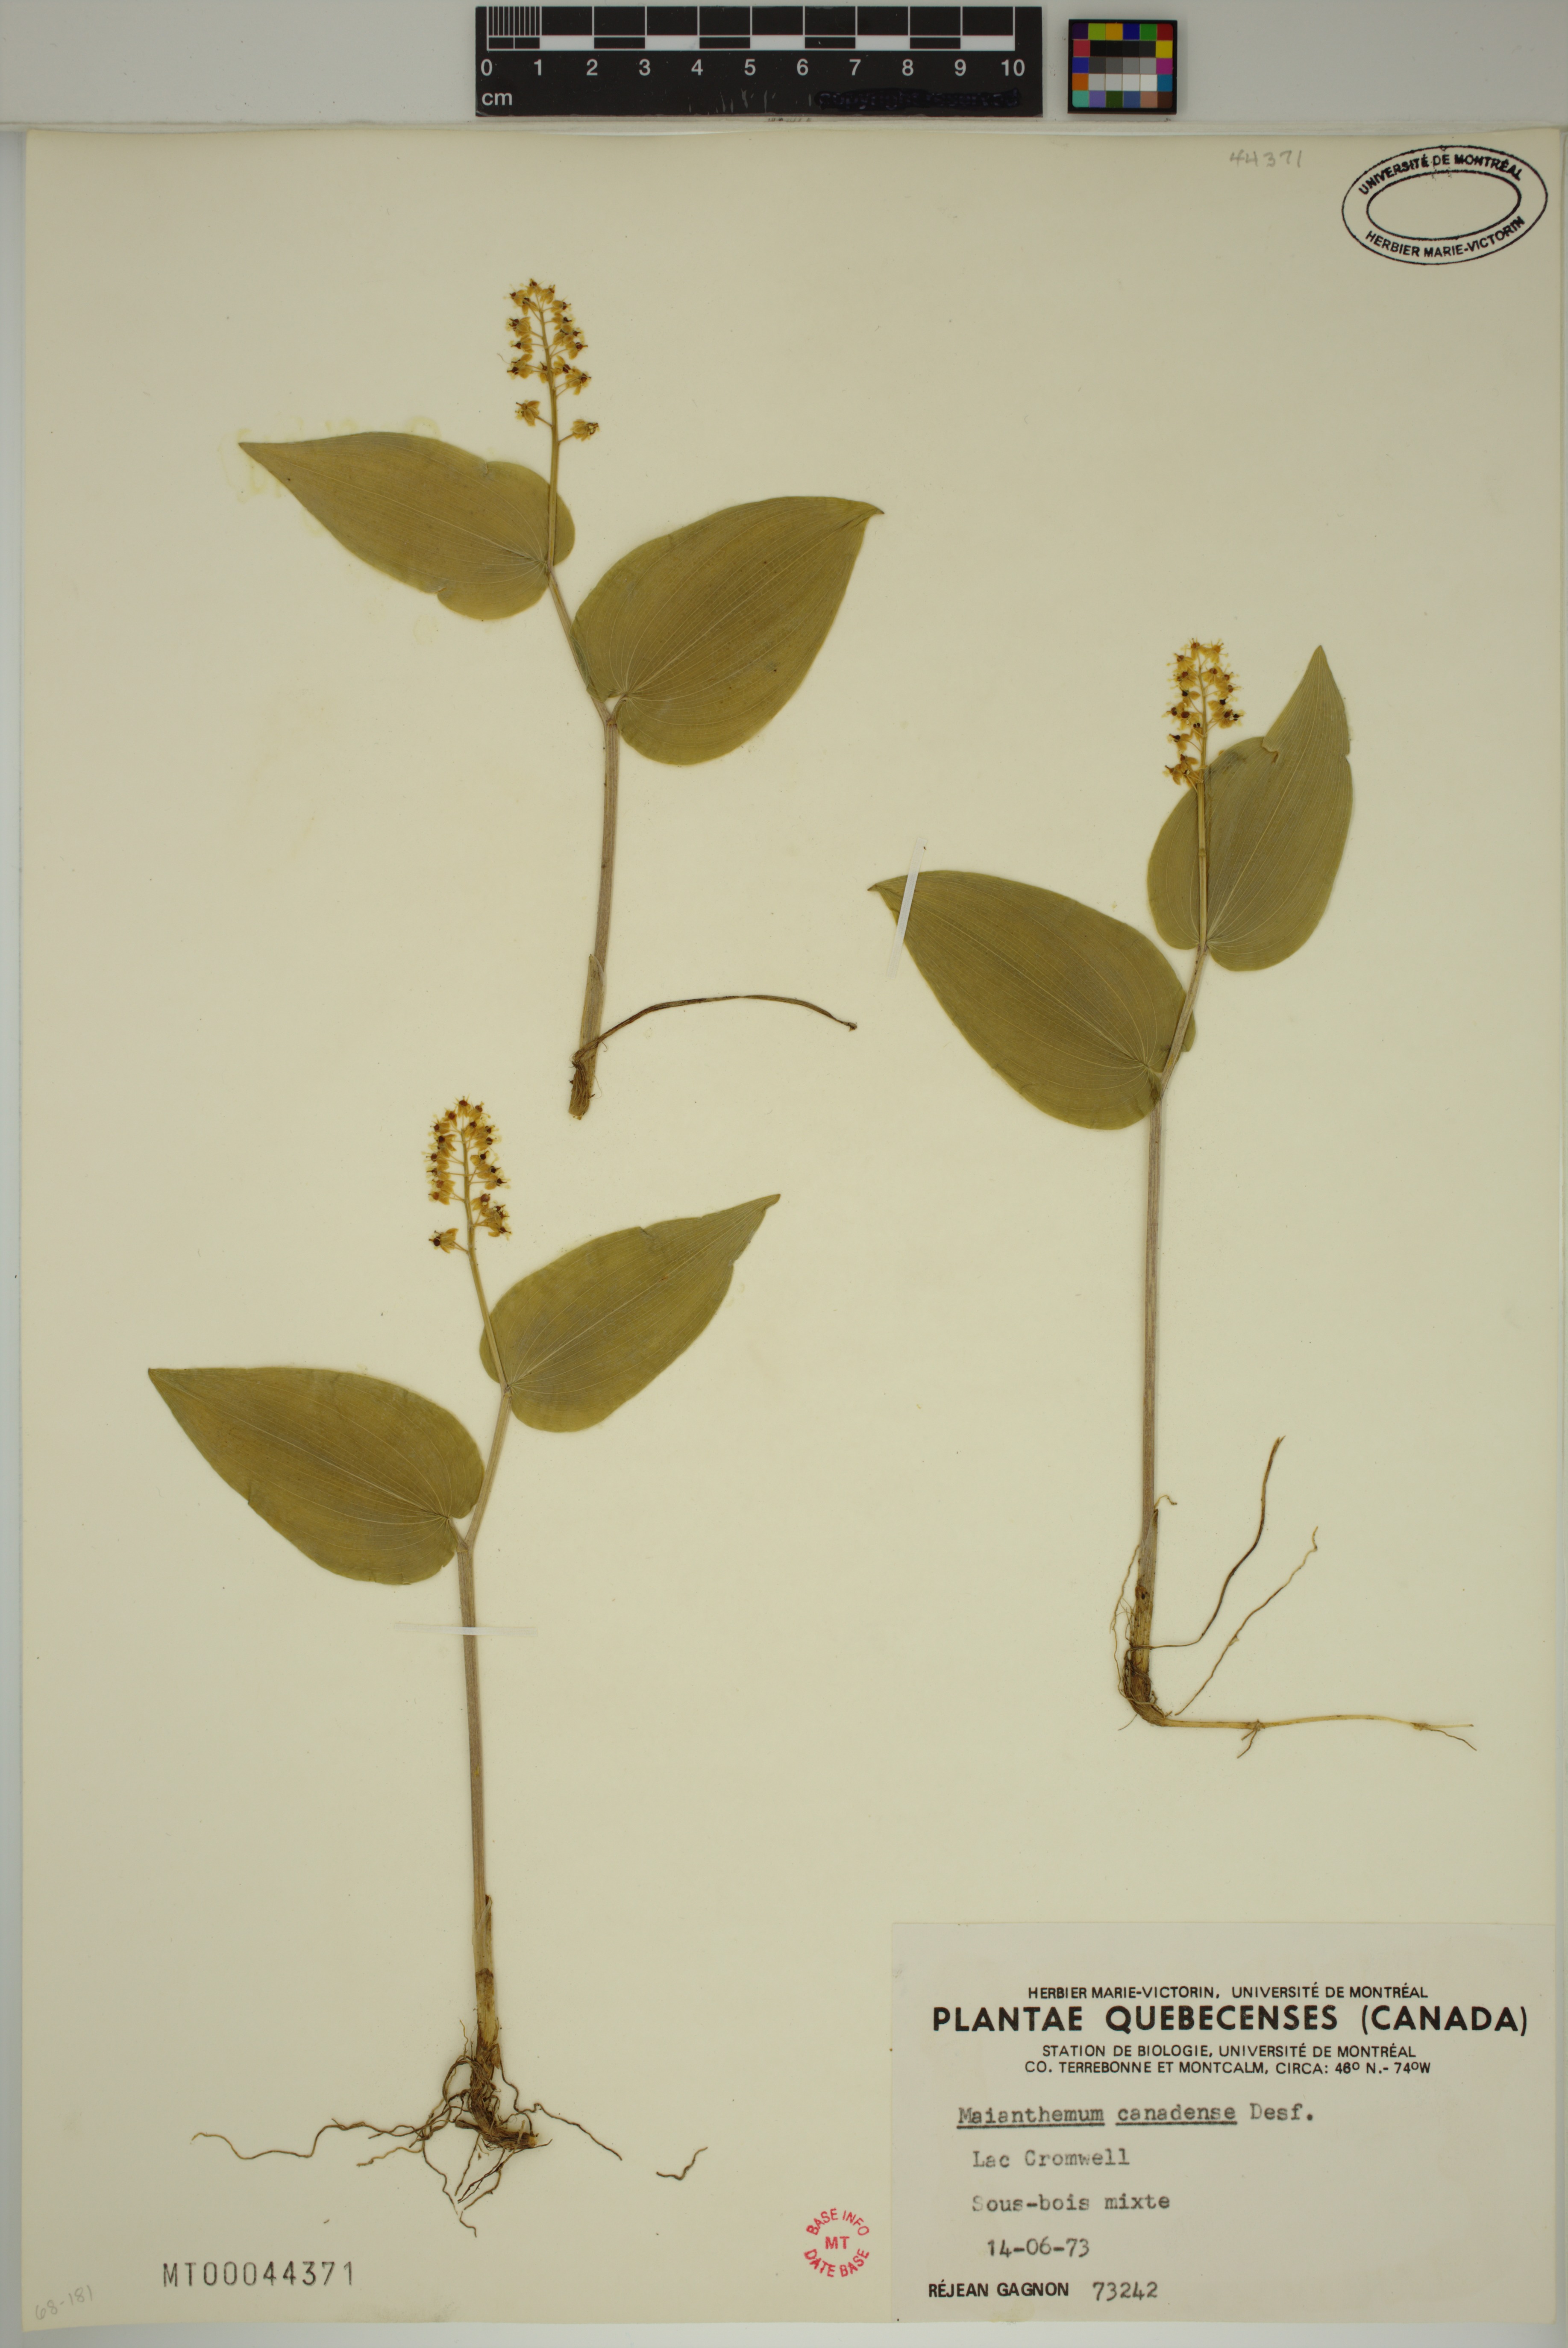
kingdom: Plantae
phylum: Tracheophyta
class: Liliopsida
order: Asparagales
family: Asparagaceae
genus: Maianthemum
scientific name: Maianthemum canadense
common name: False lily-of-the-valley
